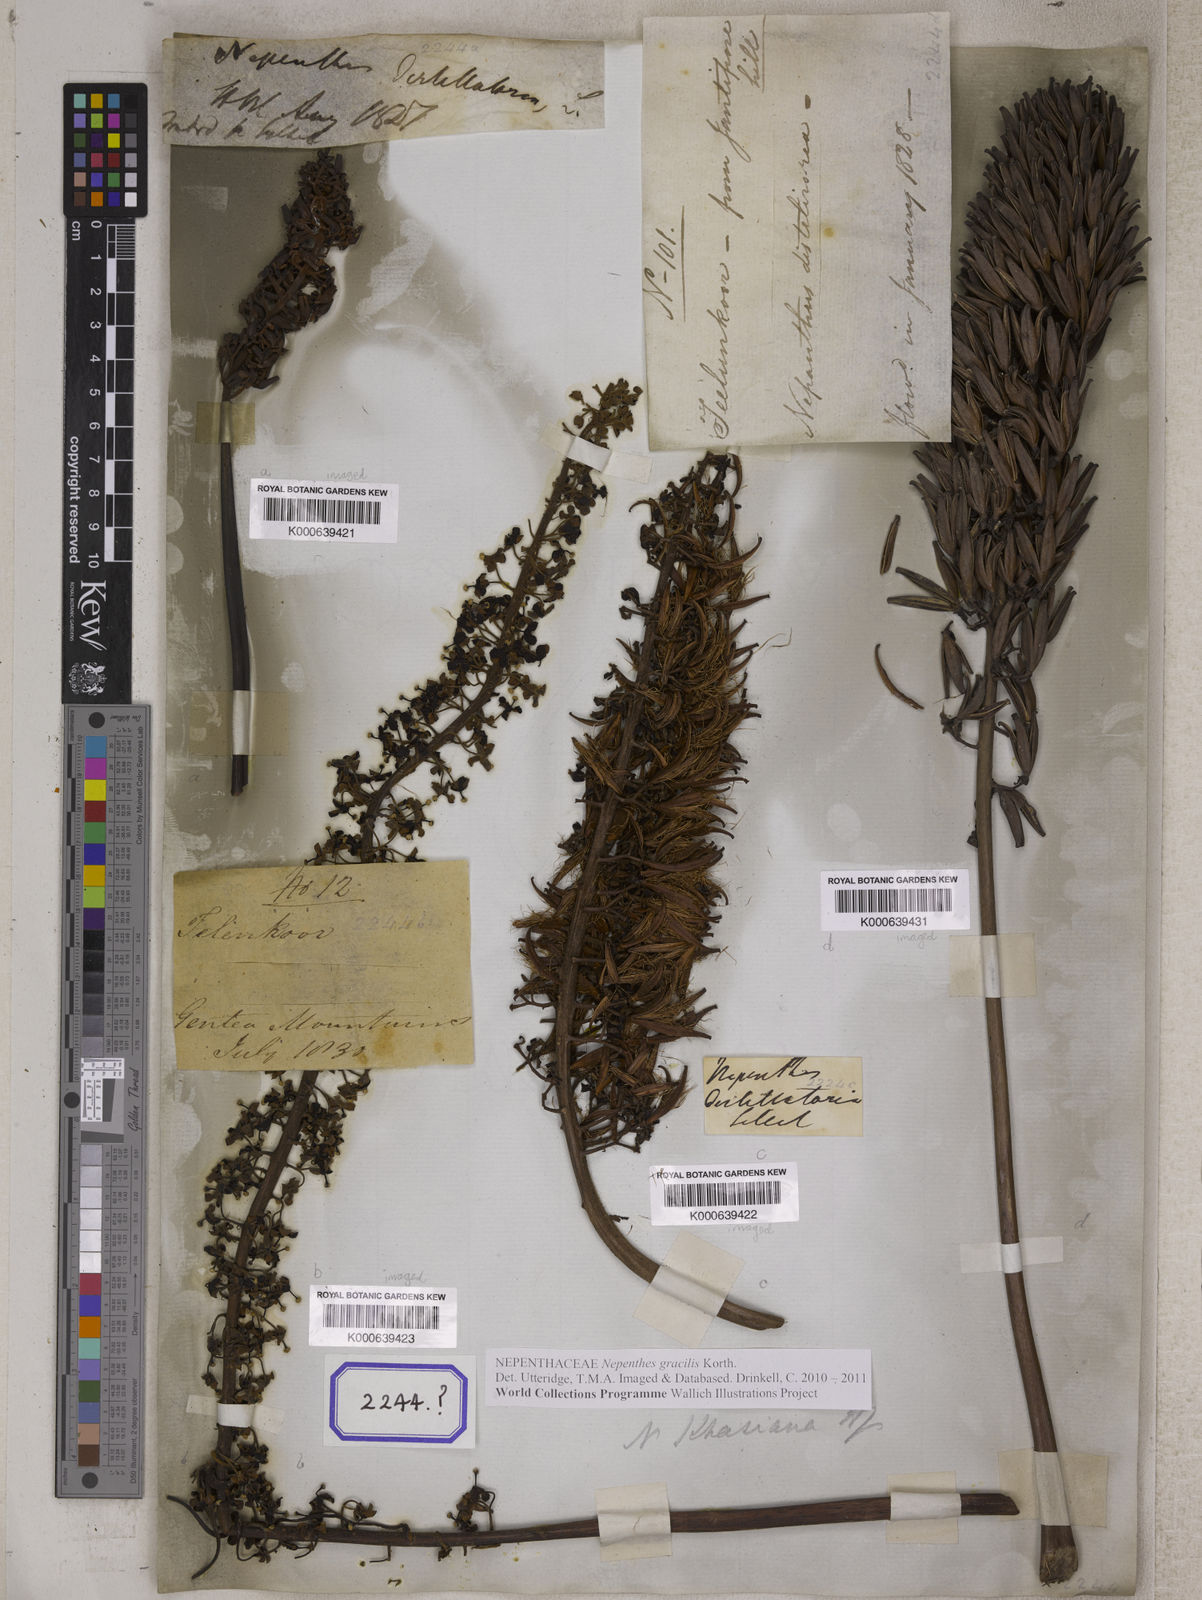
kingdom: Plantae
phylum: Tracheophyta
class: Magnoliopsida
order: Caryophyllales
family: Nepenthaceae
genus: Nepenthes
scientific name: Nepenthes khasiana
